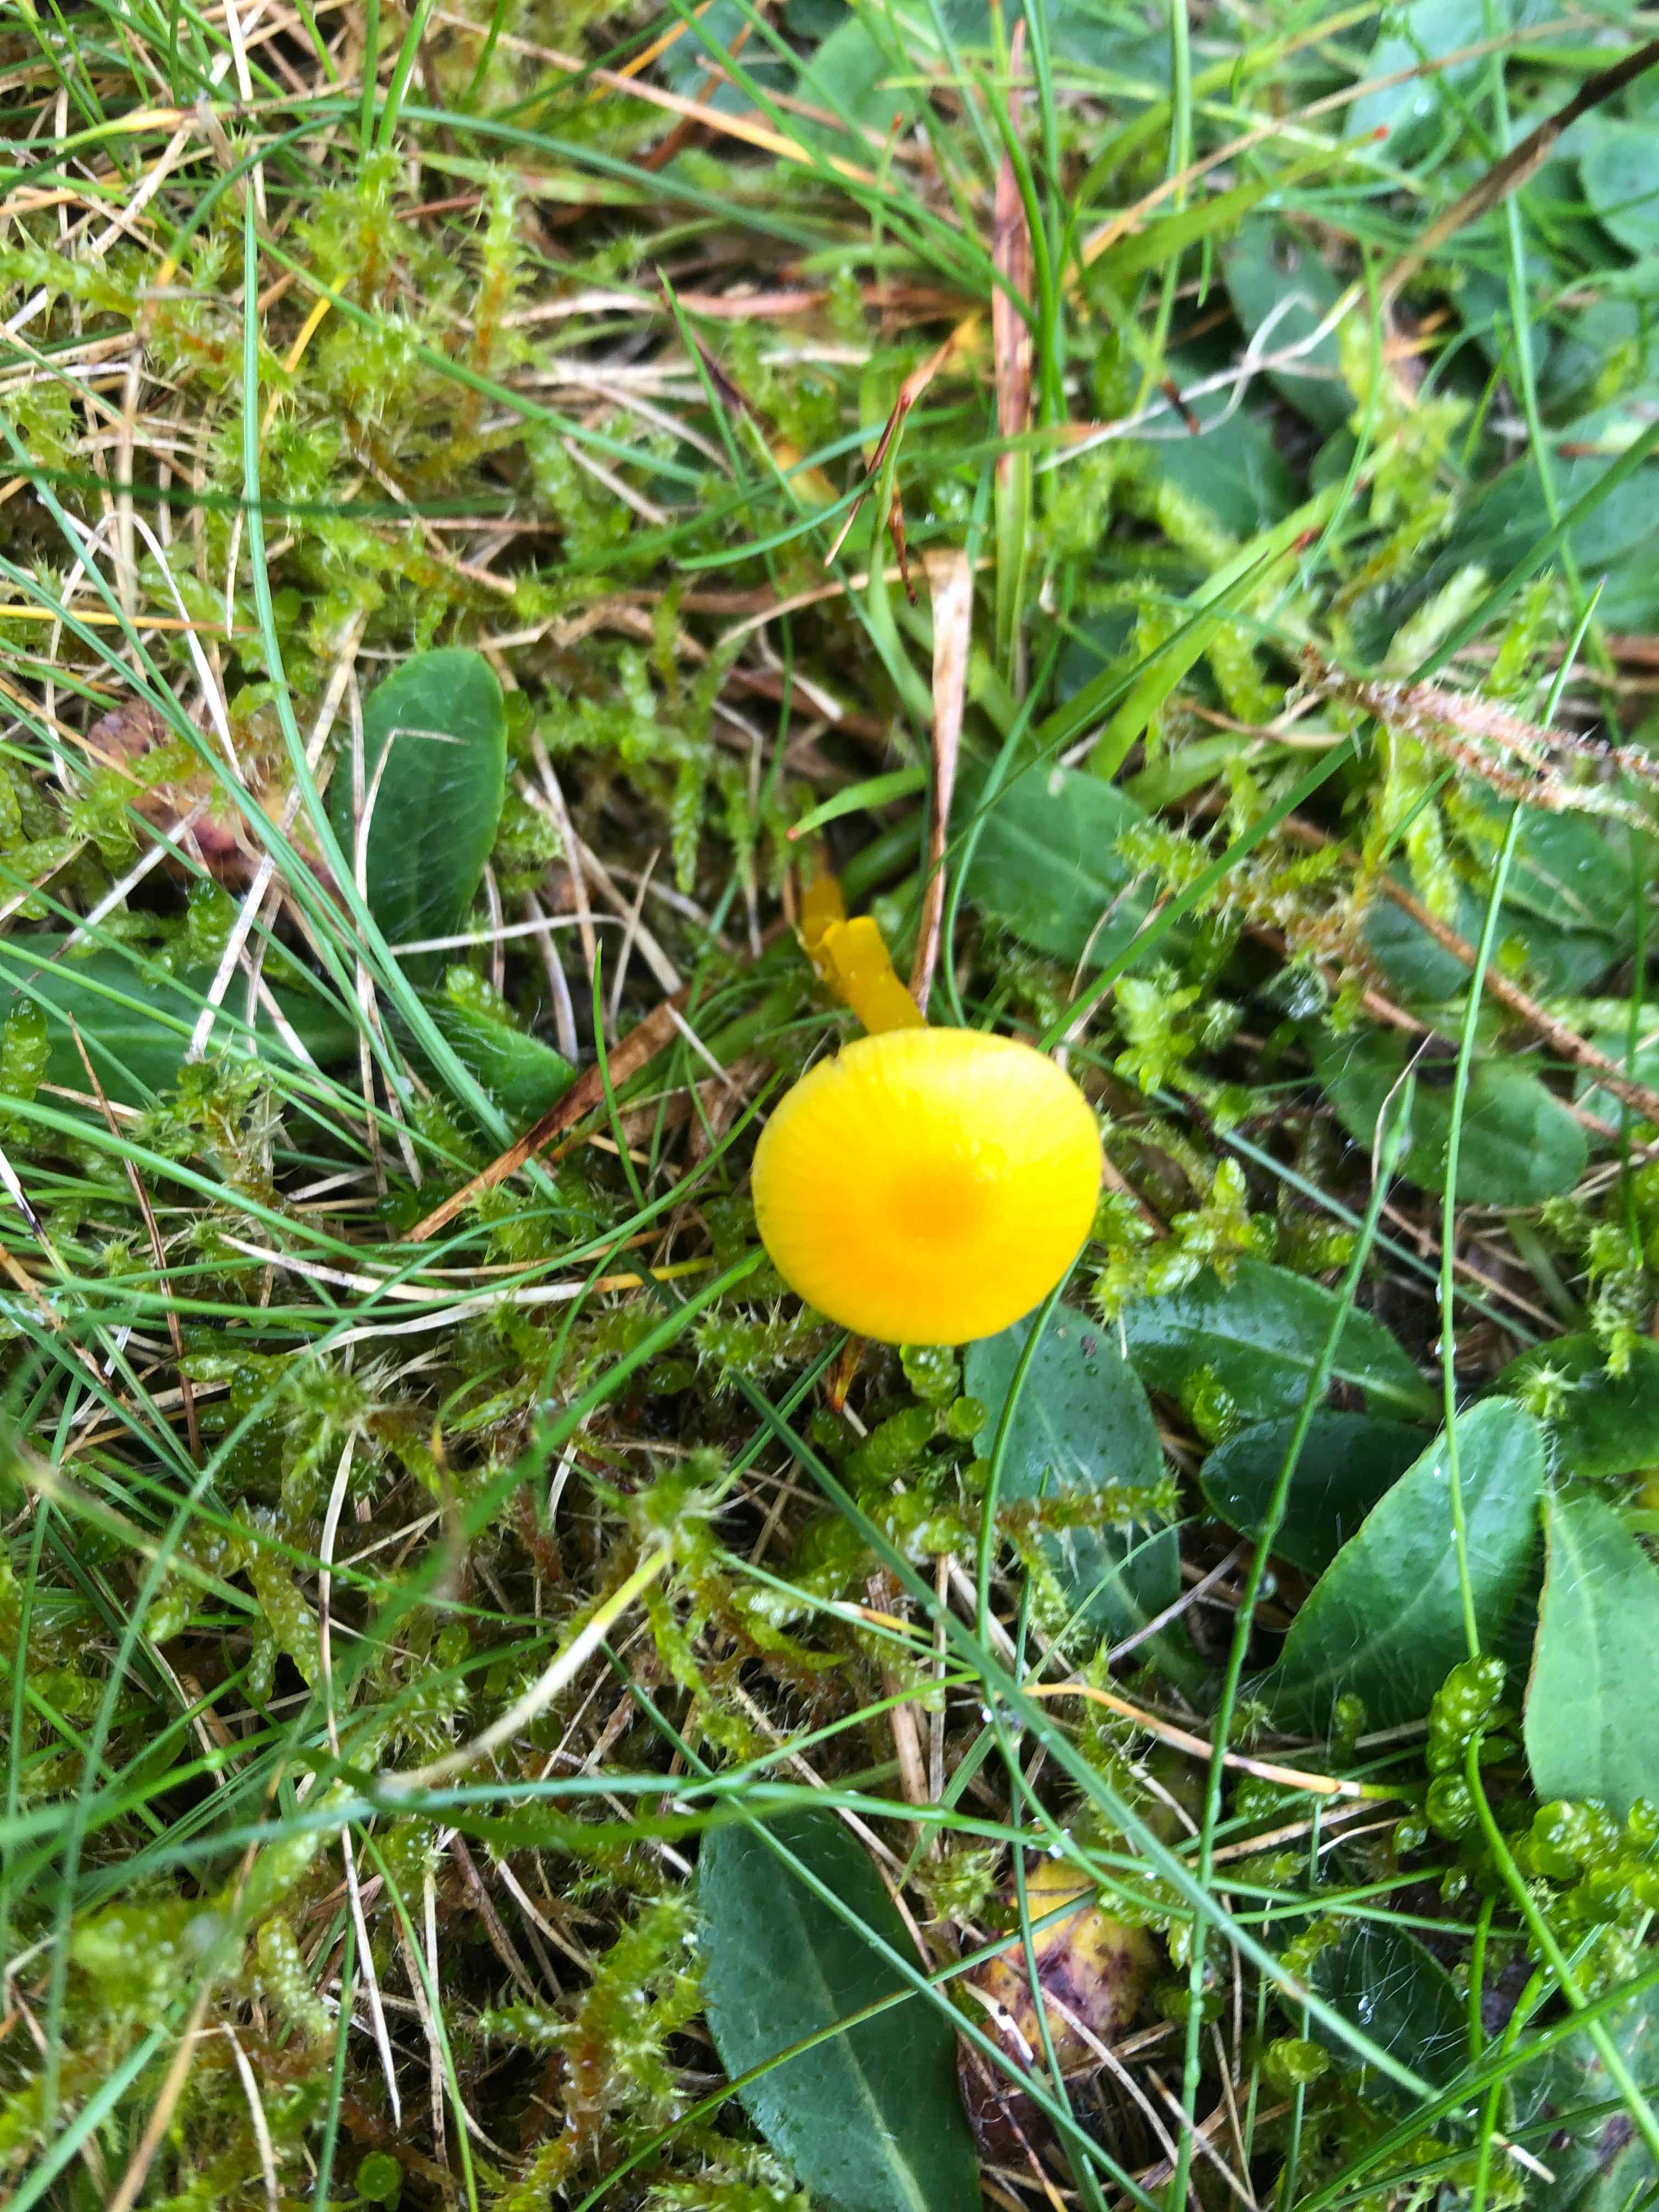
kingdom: Fungi
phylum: Basidiomycota
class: Agaricomycetes
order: Agaricales
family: Hygrophoraceae
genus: Hygrocybe
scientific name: Hygrocybe ceracea
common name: voksgul vokshat
